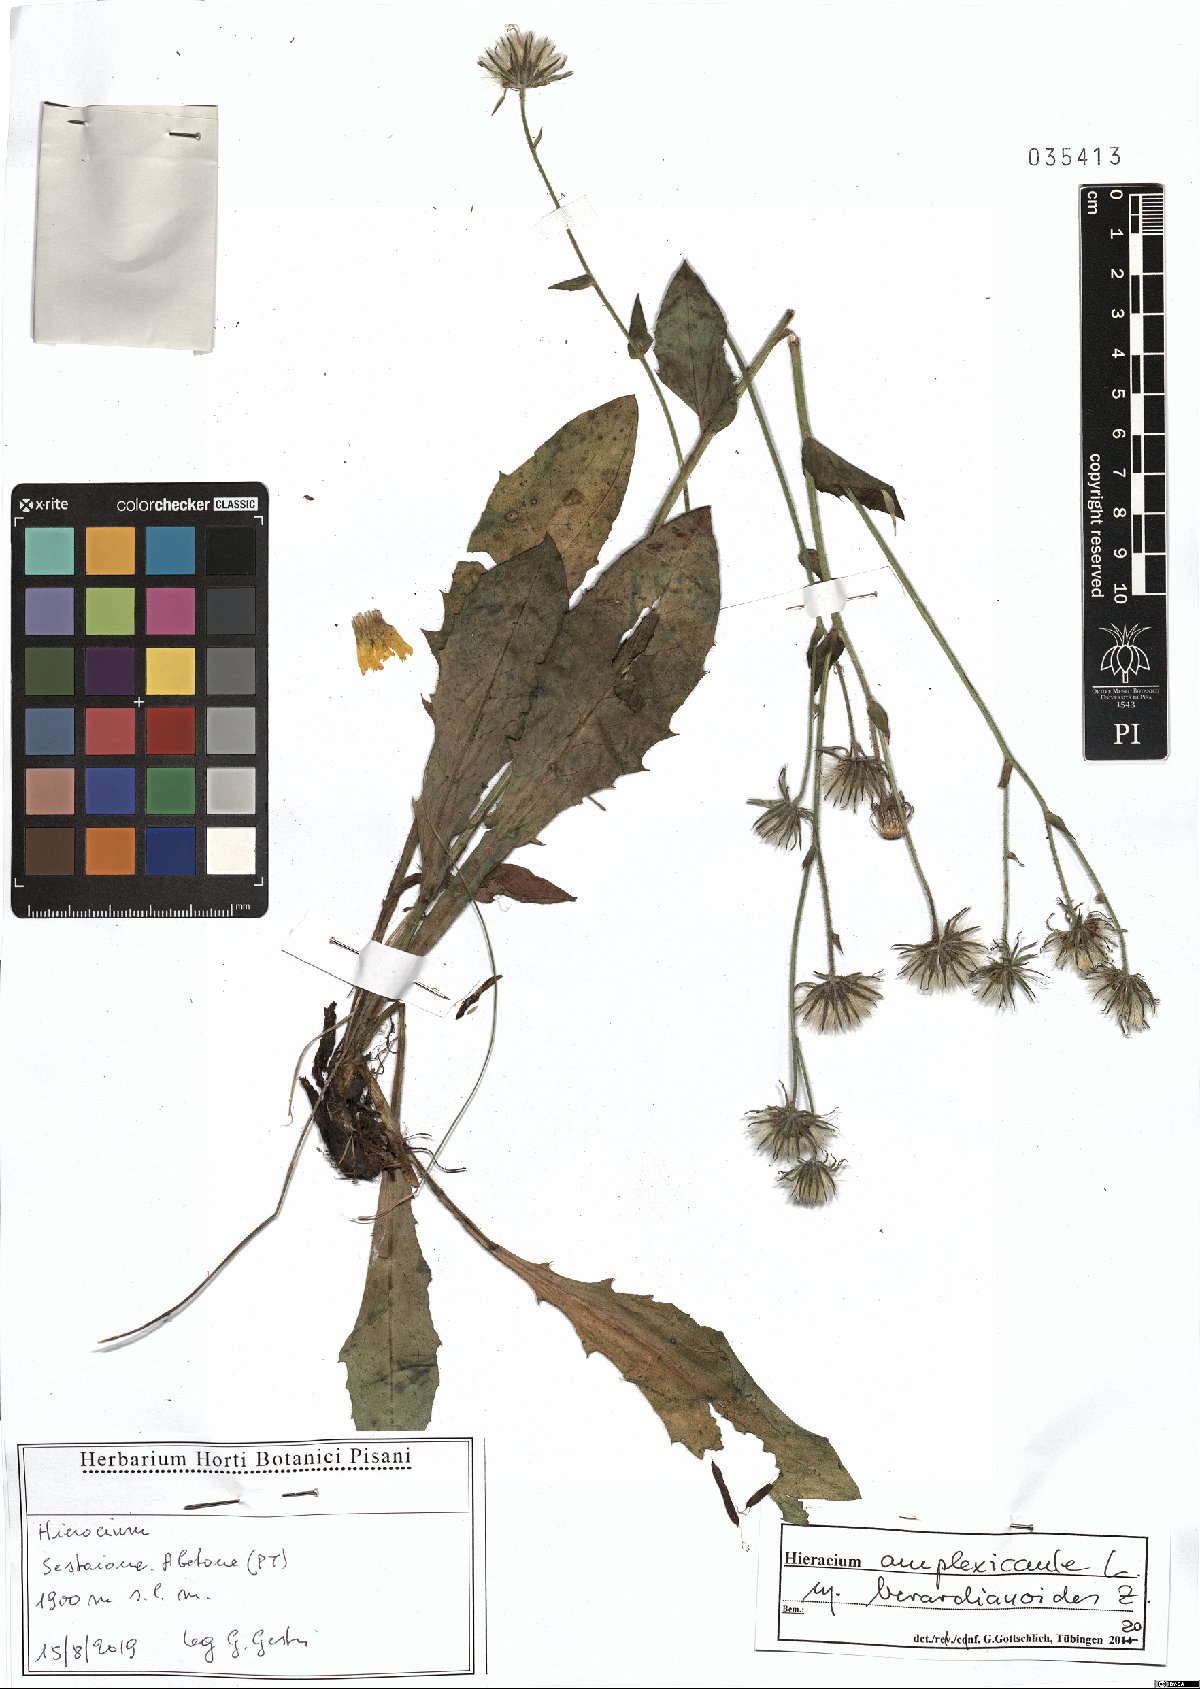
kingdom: Plantae
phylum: Tracheophyta
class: Magnoliopsida
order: Asterales
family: Asteraceae
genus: Hieracium
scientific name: Hieracium amplexicaule
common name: Sticky hawkweed
